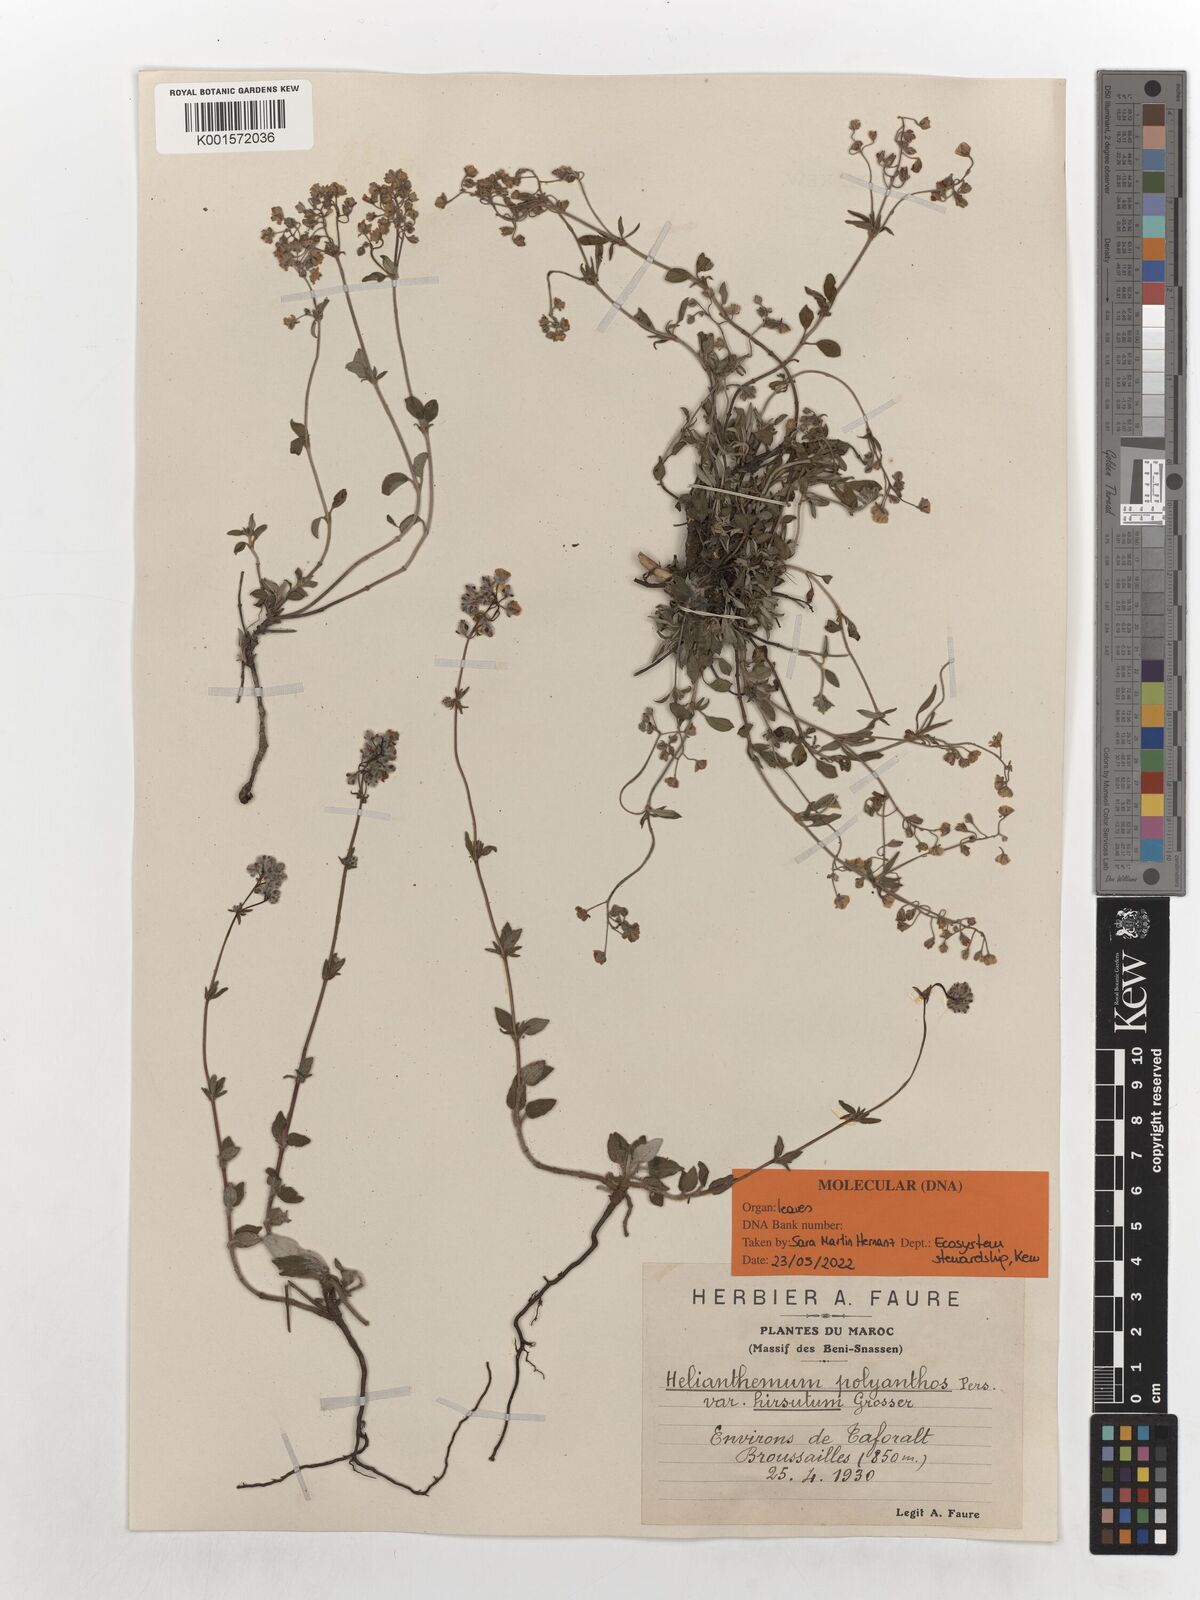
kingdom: Plantae
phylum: Tracheophyta
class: Magnoliopsida
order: Malvales
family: Cistaceae
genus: Helianthemum
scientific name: Helianthemum polyanthum
